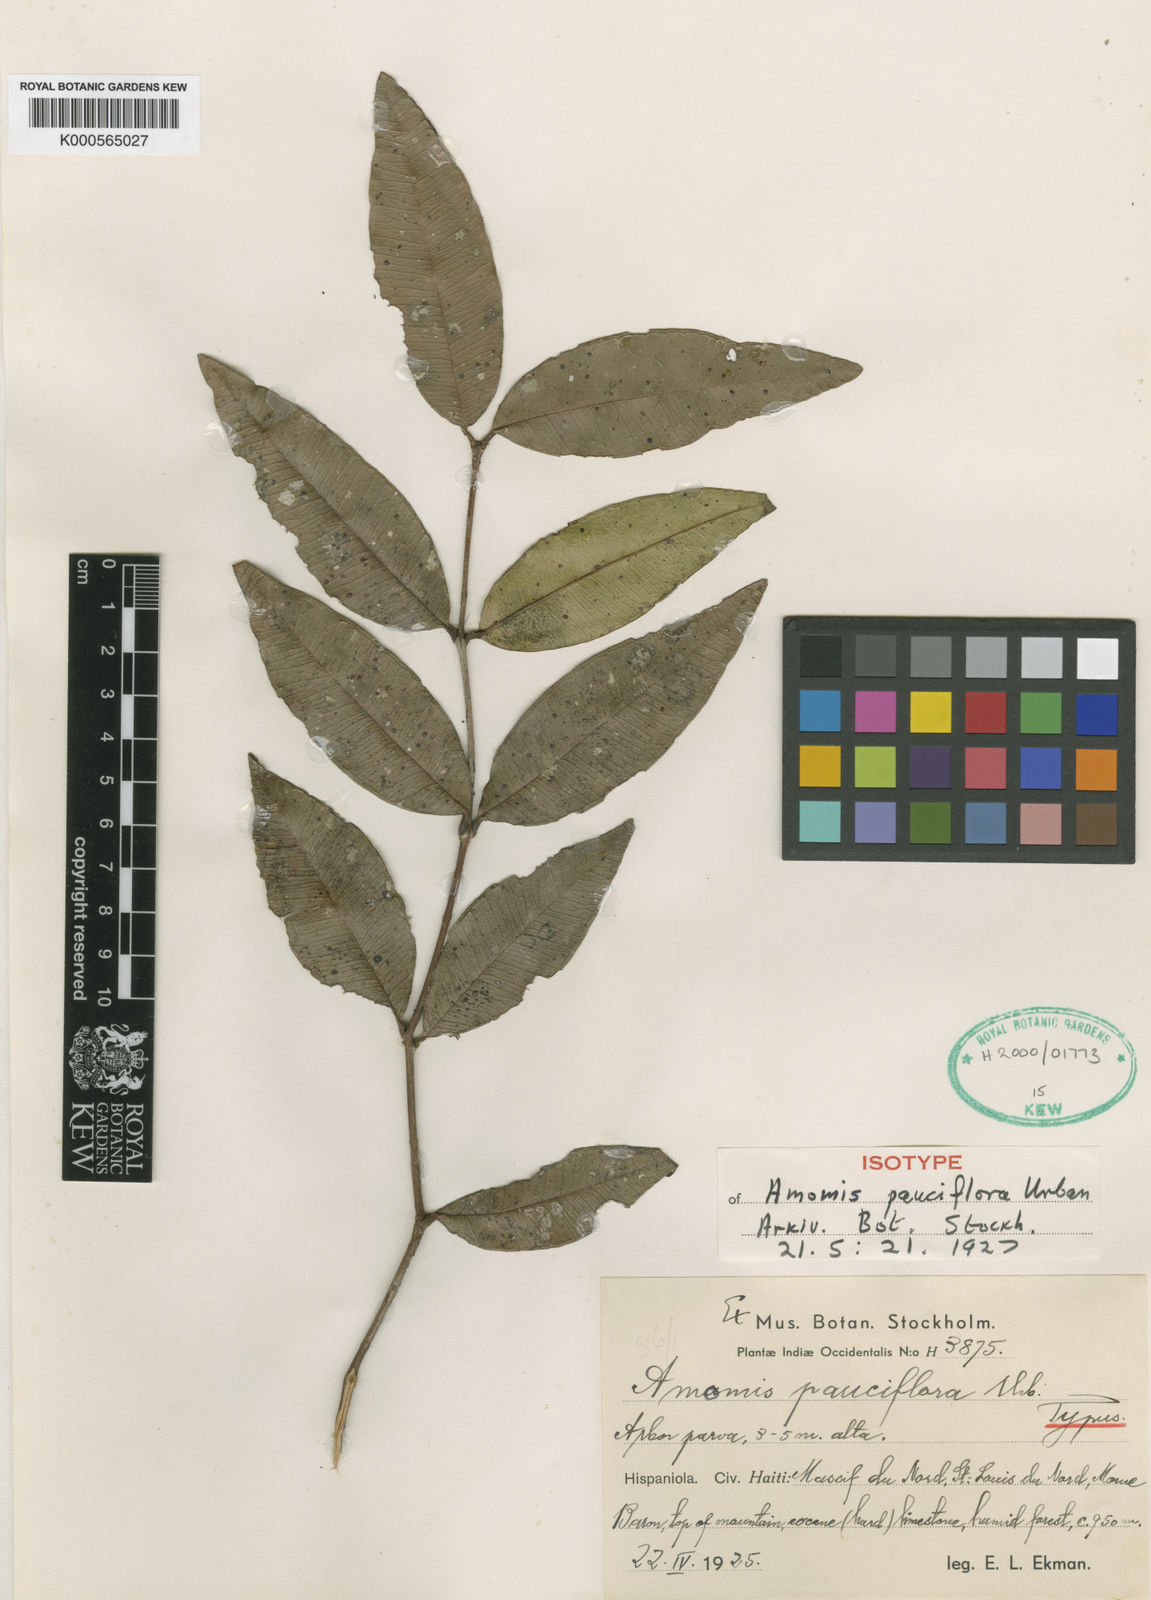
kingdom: Plantae
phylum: Tracheophyta
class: Magnoliopsida
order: Myrtales
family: Myrtaceae
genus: Pimenta
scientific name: Pimenta racemosa
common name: Bay rum tree
